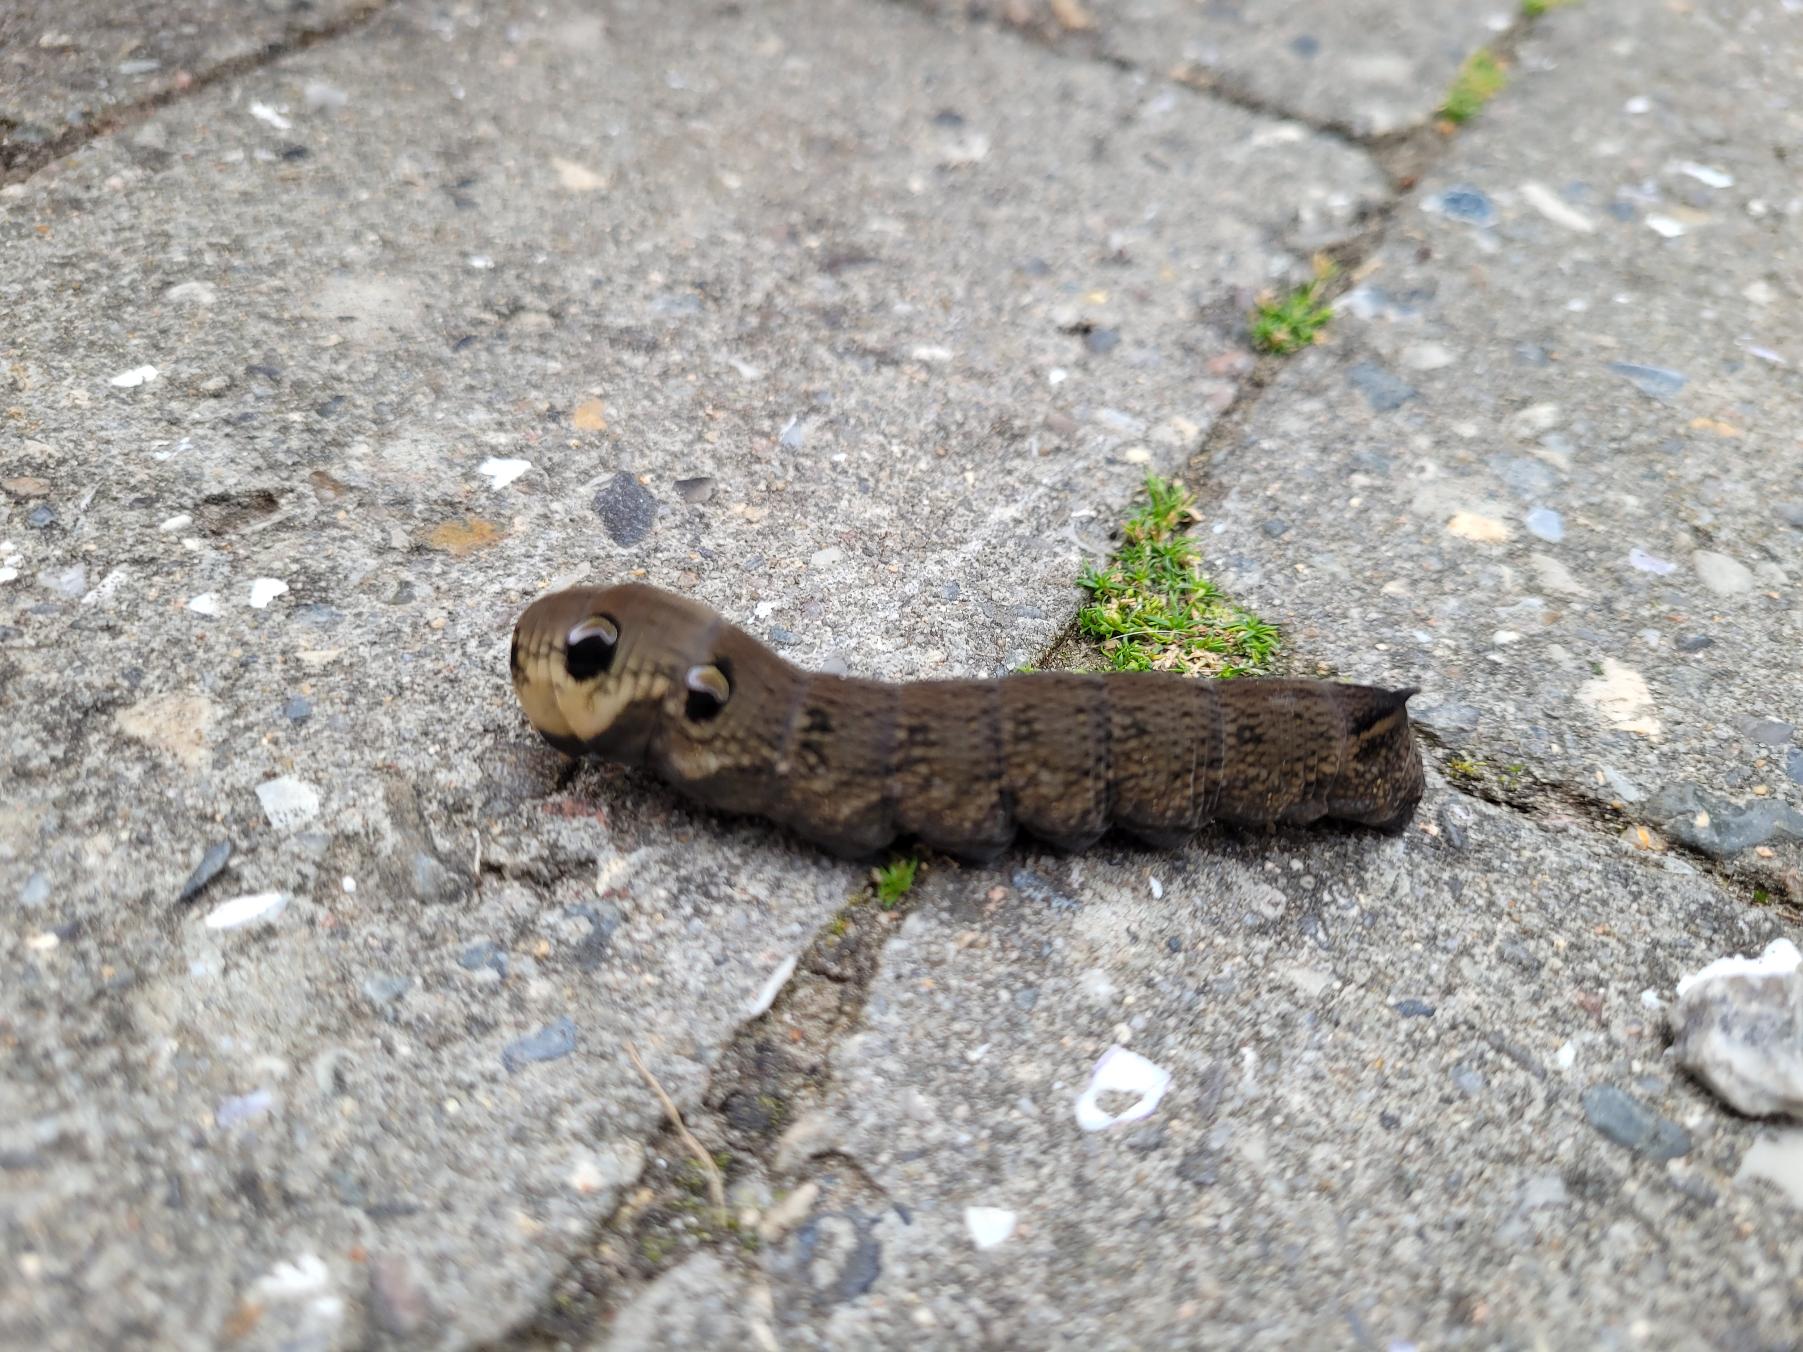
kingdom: Animalia
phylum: Arthropoda
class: Insecta
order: Lepidoptera
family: Sphingidae
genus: Deilephila
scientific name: Deilephila elpenor
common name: Dueurtsværmer
